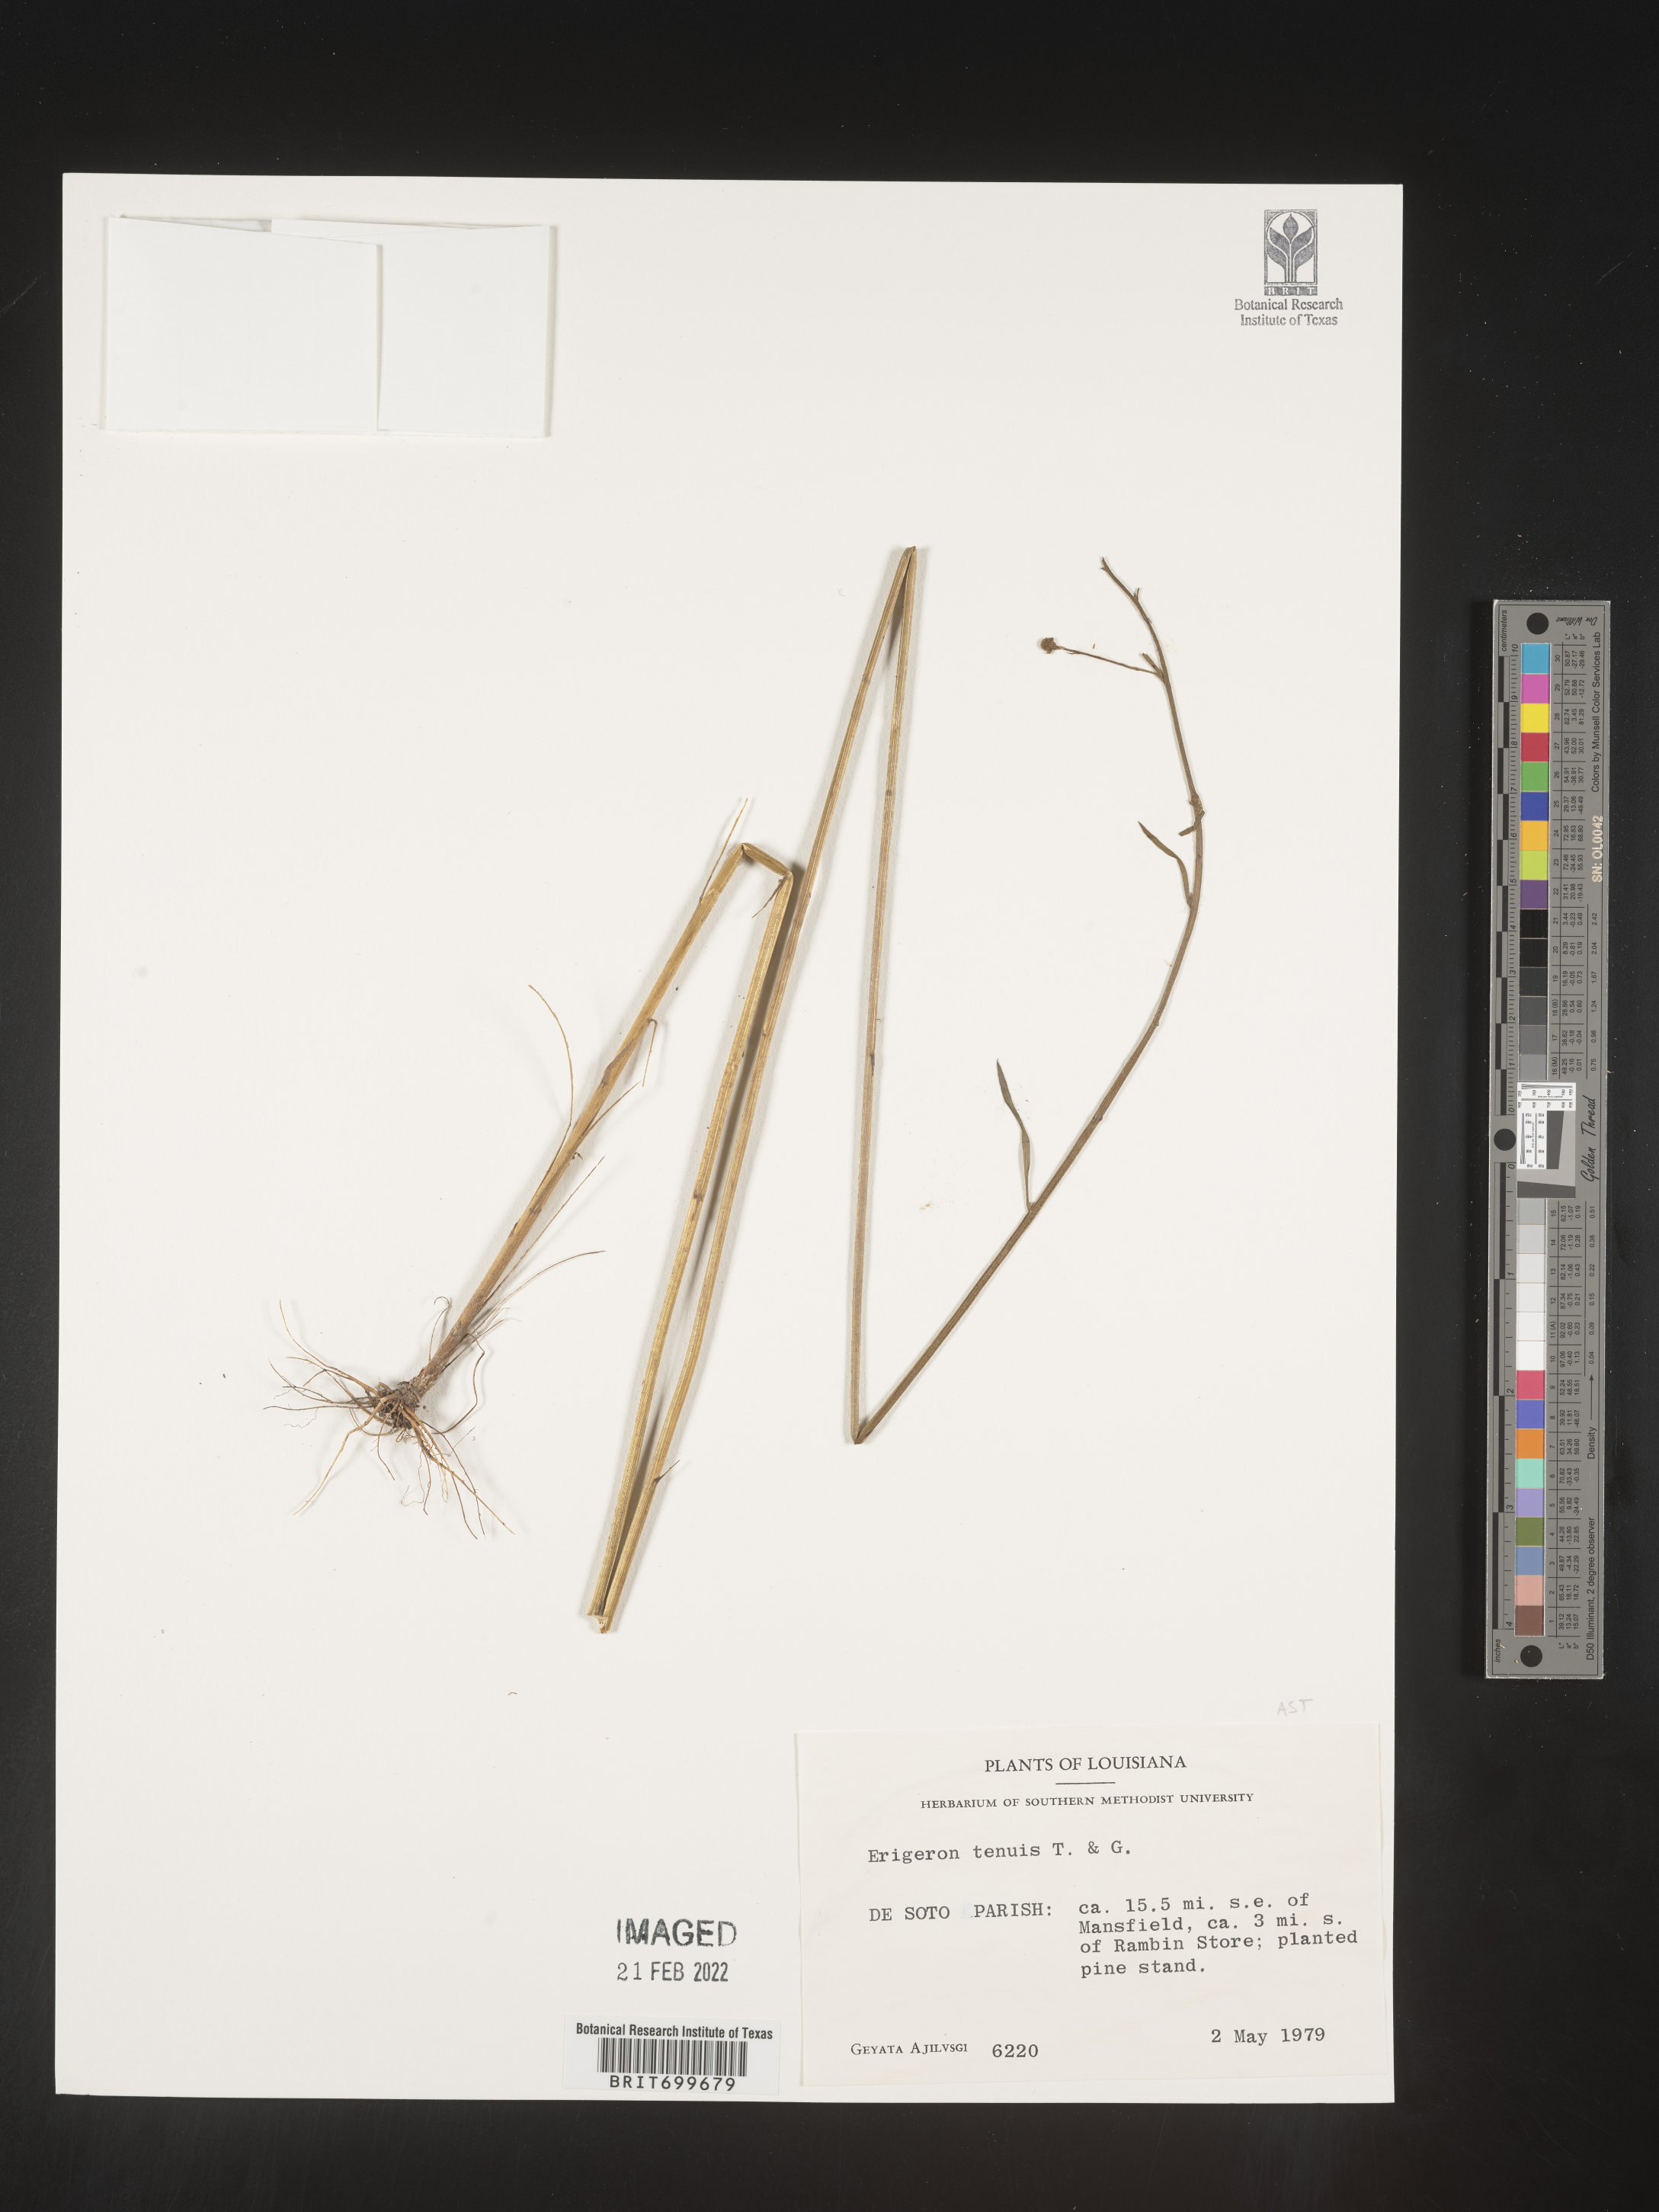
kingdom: Plantae
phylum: Tracheophyta
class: Magnoliopsida
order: Asterales
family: Asteraceae
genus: Erigeron
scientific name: Erigeron tenuis
